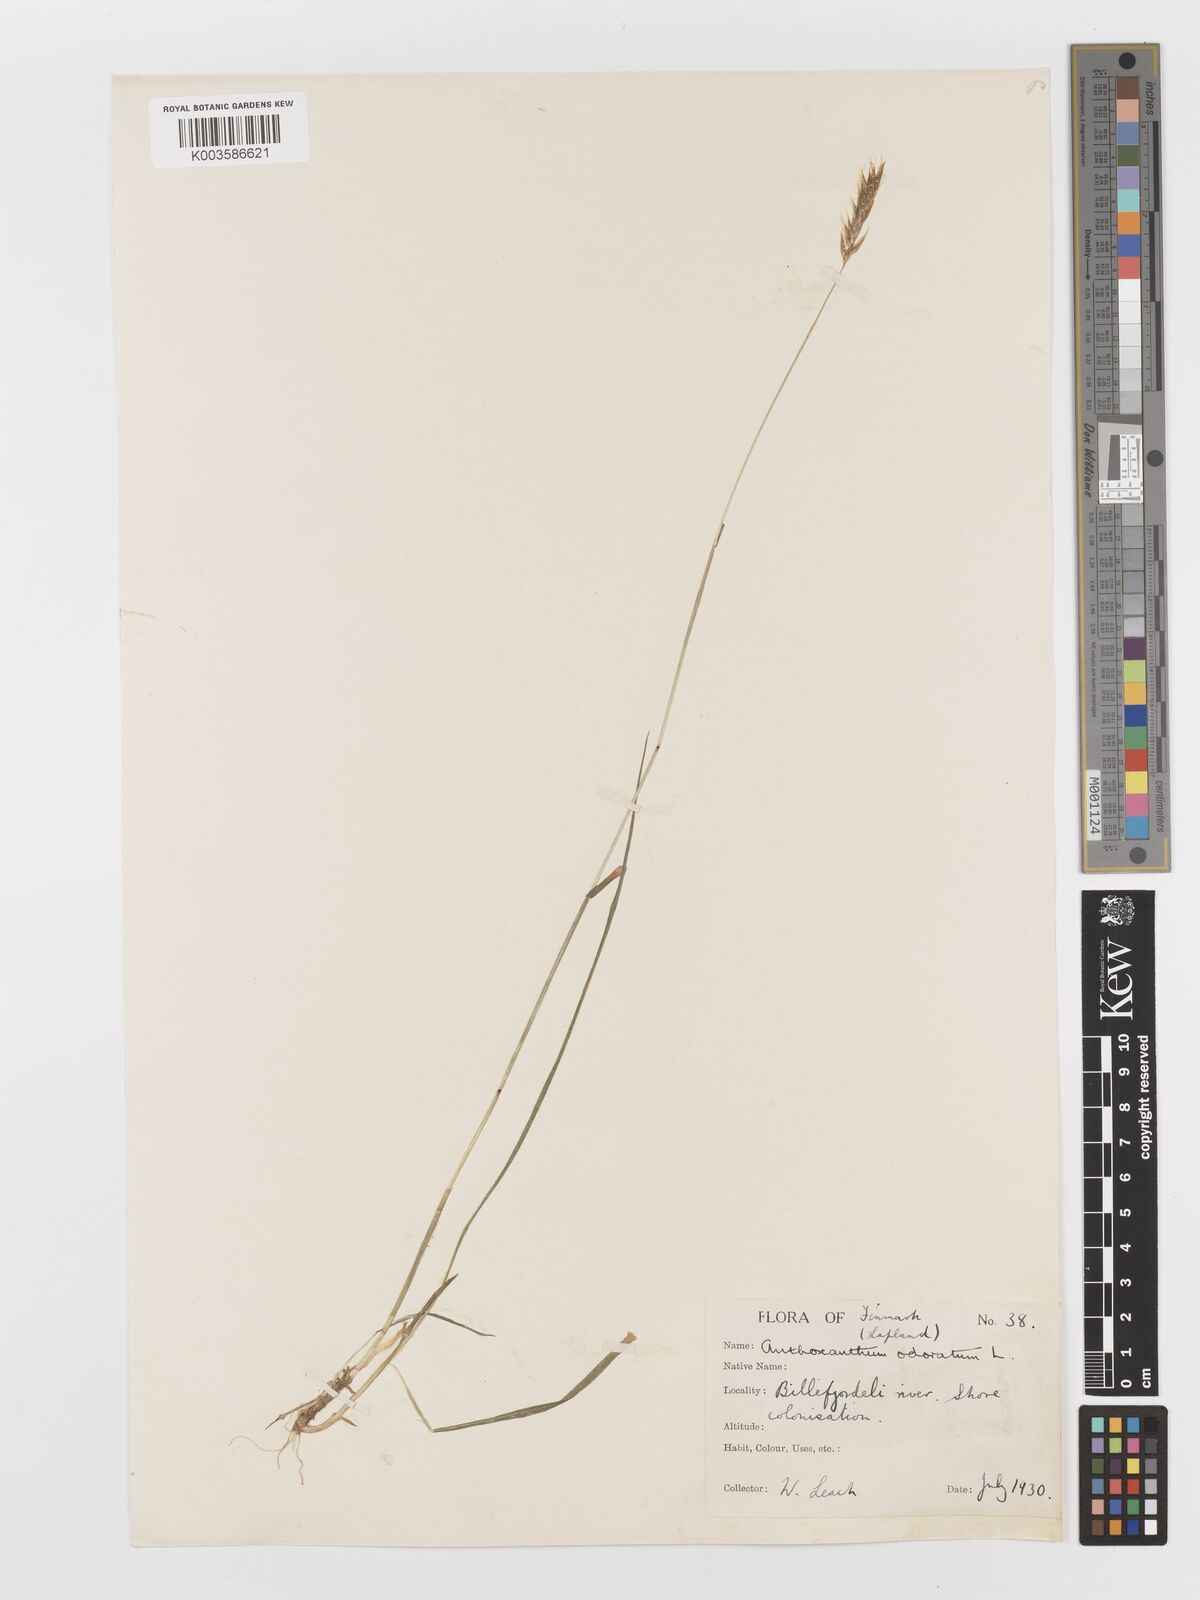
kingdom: Plantae
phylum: Tracheophyta
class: Liliopsida
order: Poales
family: Poaceae
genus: Anthoxanthum
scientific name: Anthoxanthum odoratum
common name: Sweet vernalgrass
